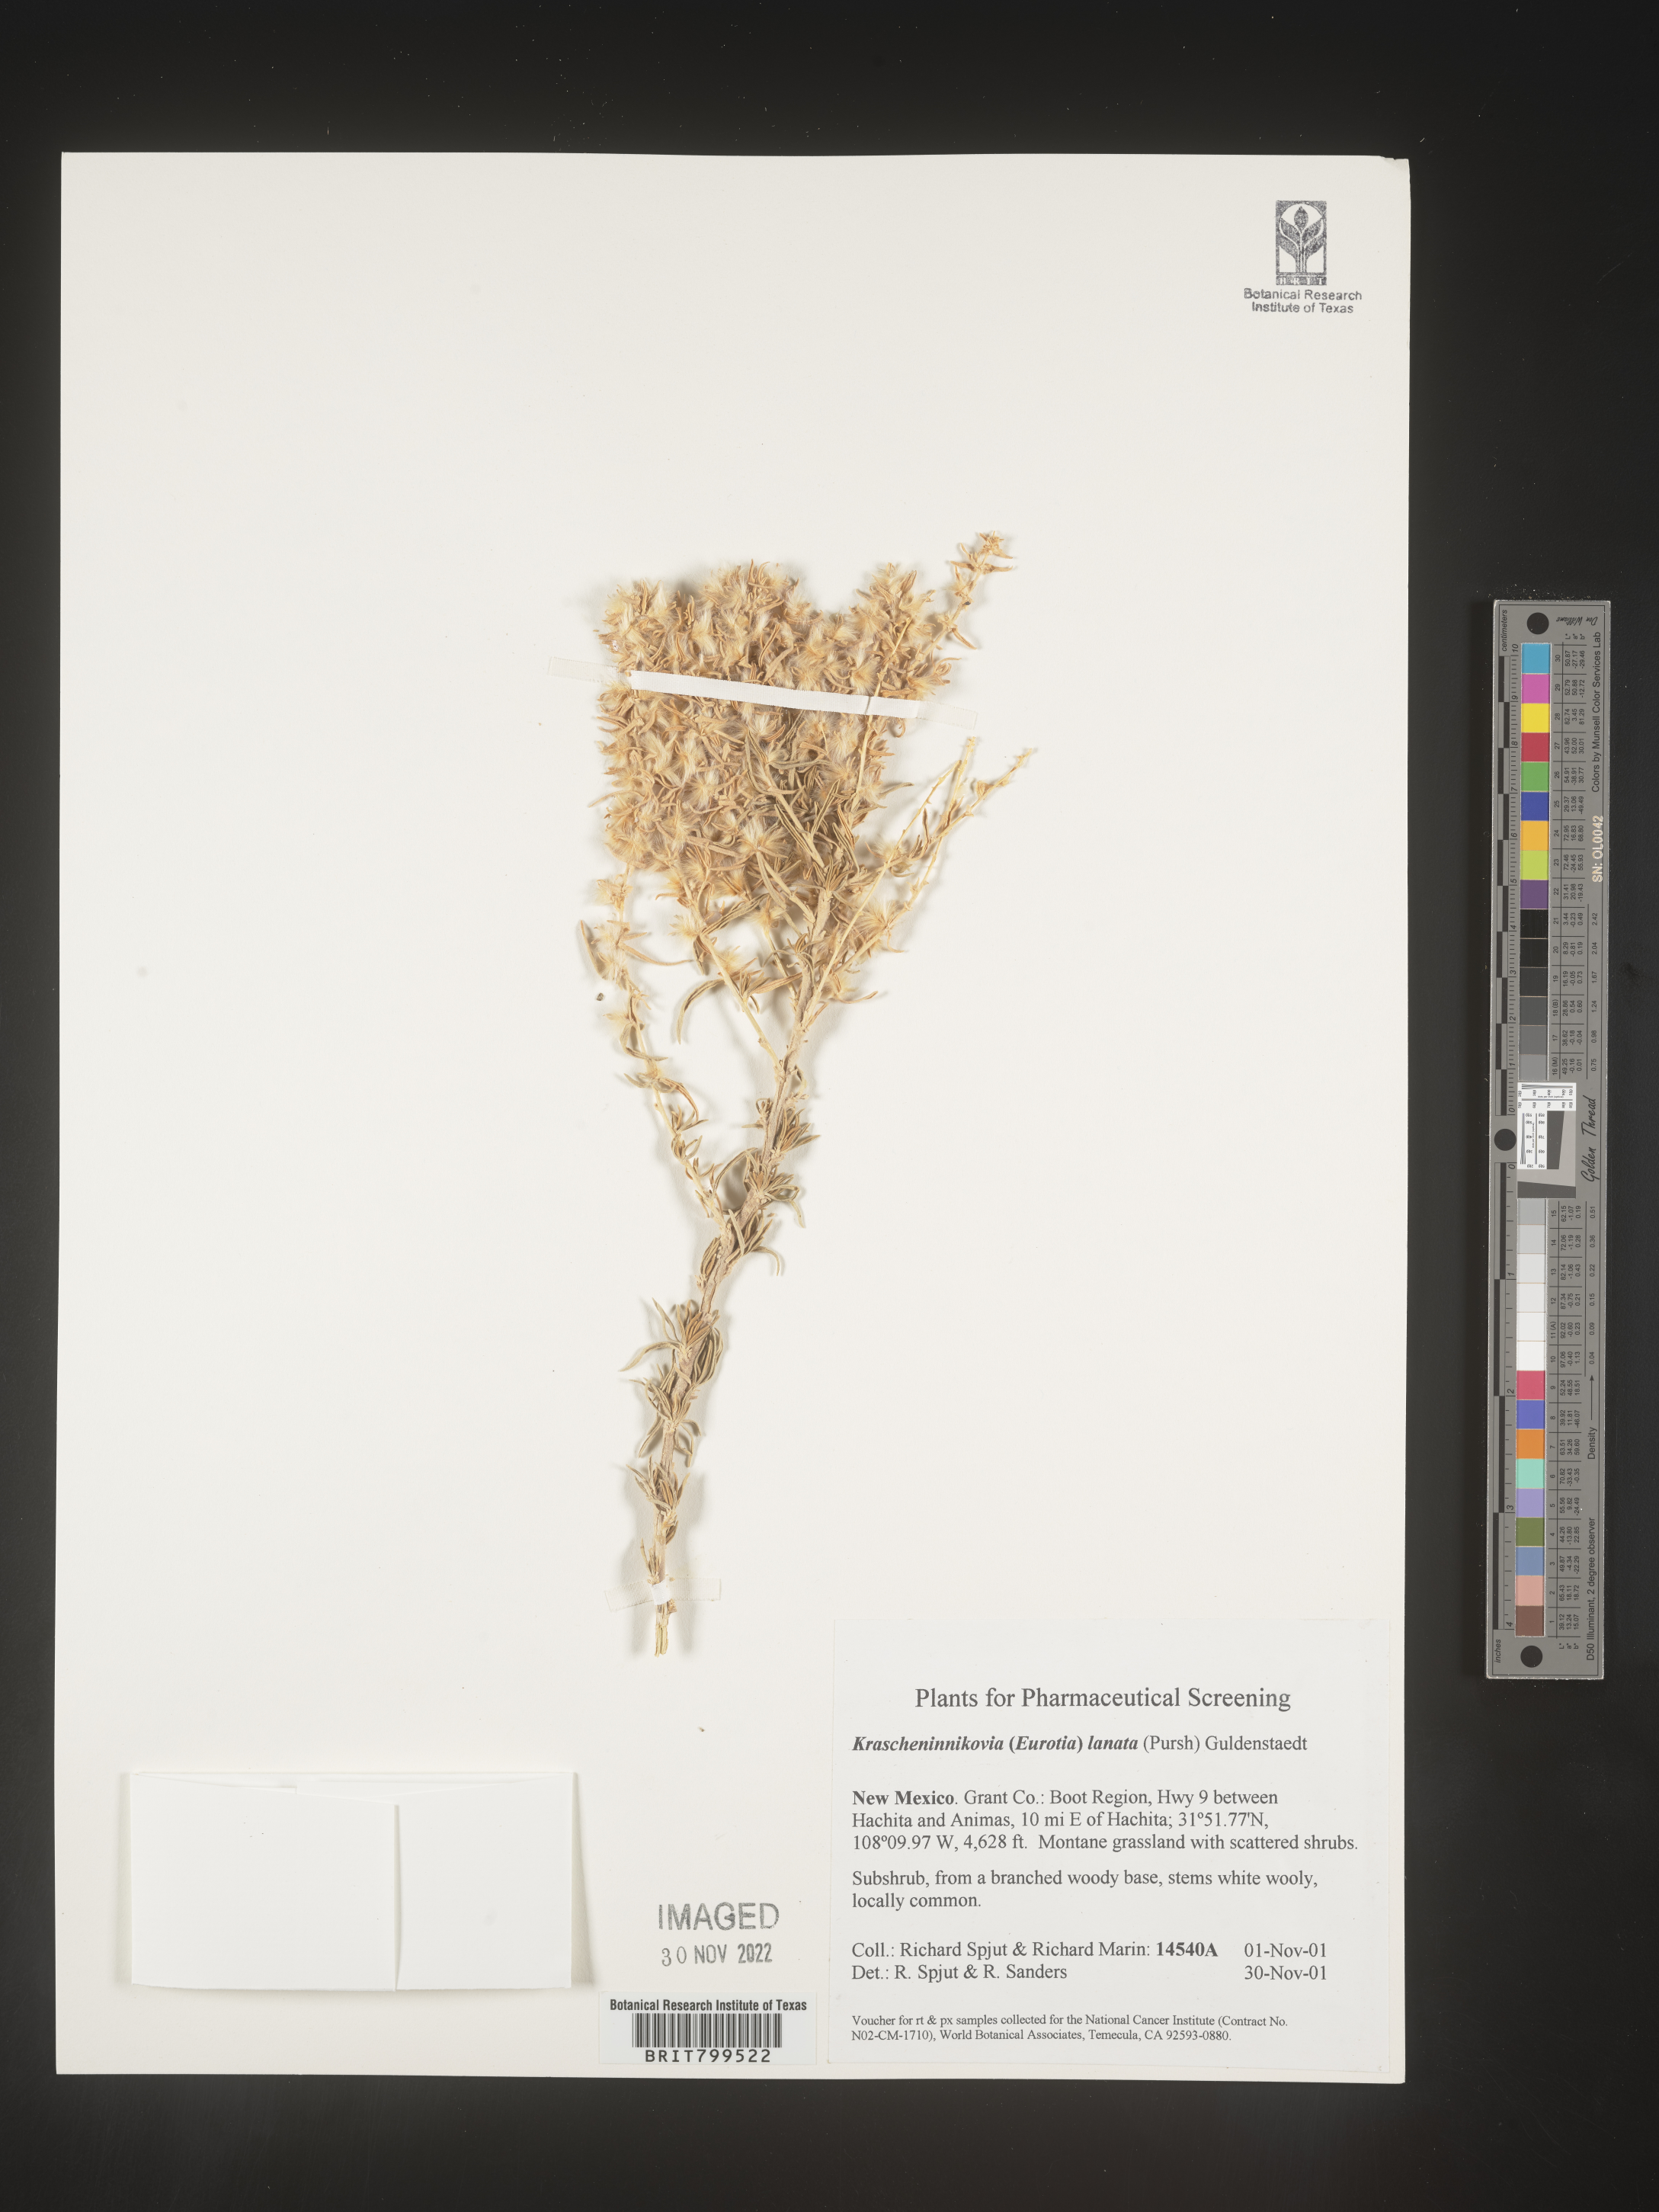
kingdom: Plantae
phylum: Tracheophyta
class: Magnoliopsida
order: Caryophyllales
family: Amaranthaceae
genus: Krascheninnikovia
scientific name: Krascheninnikovia
